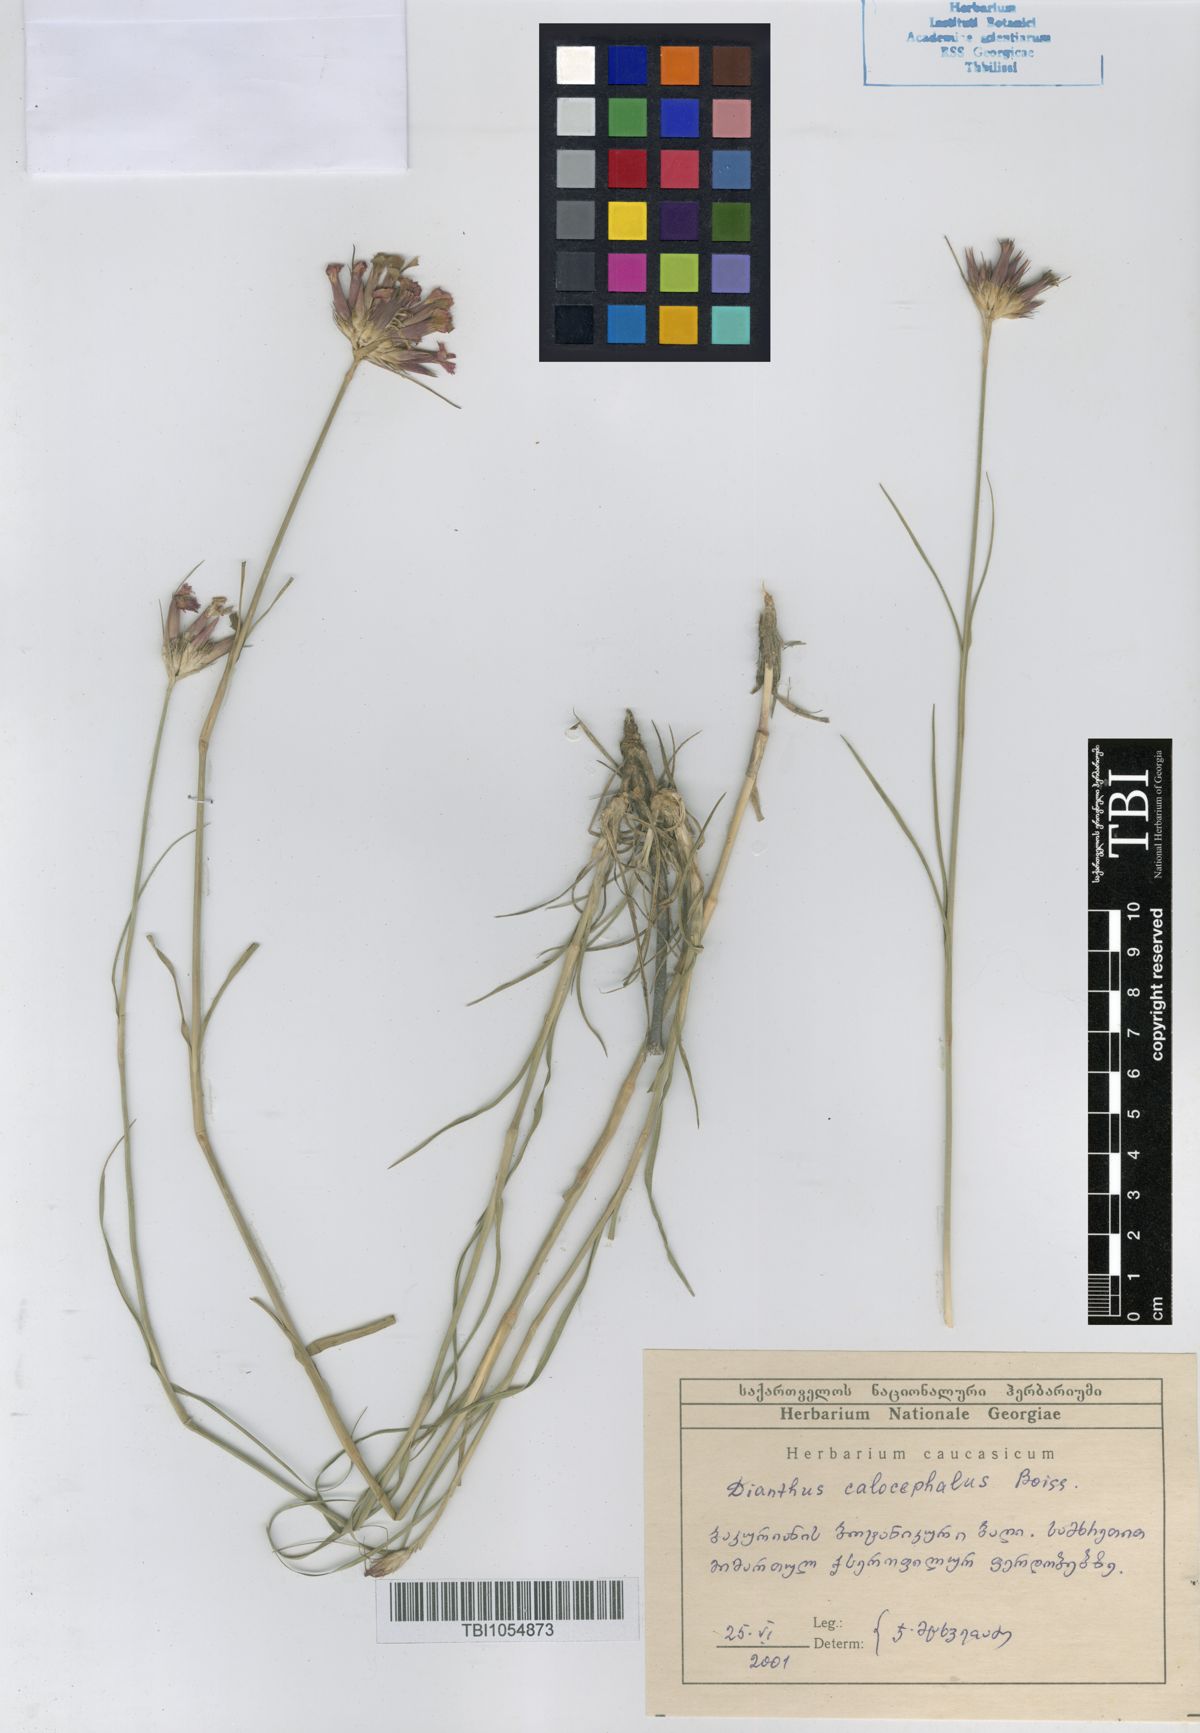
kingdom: Plantae
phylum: Tracheophyta
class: Magnoliopsida
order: Caryophyllales
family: Caryophyllaceae
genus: Dianthus
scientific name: Dianthus cruentus
